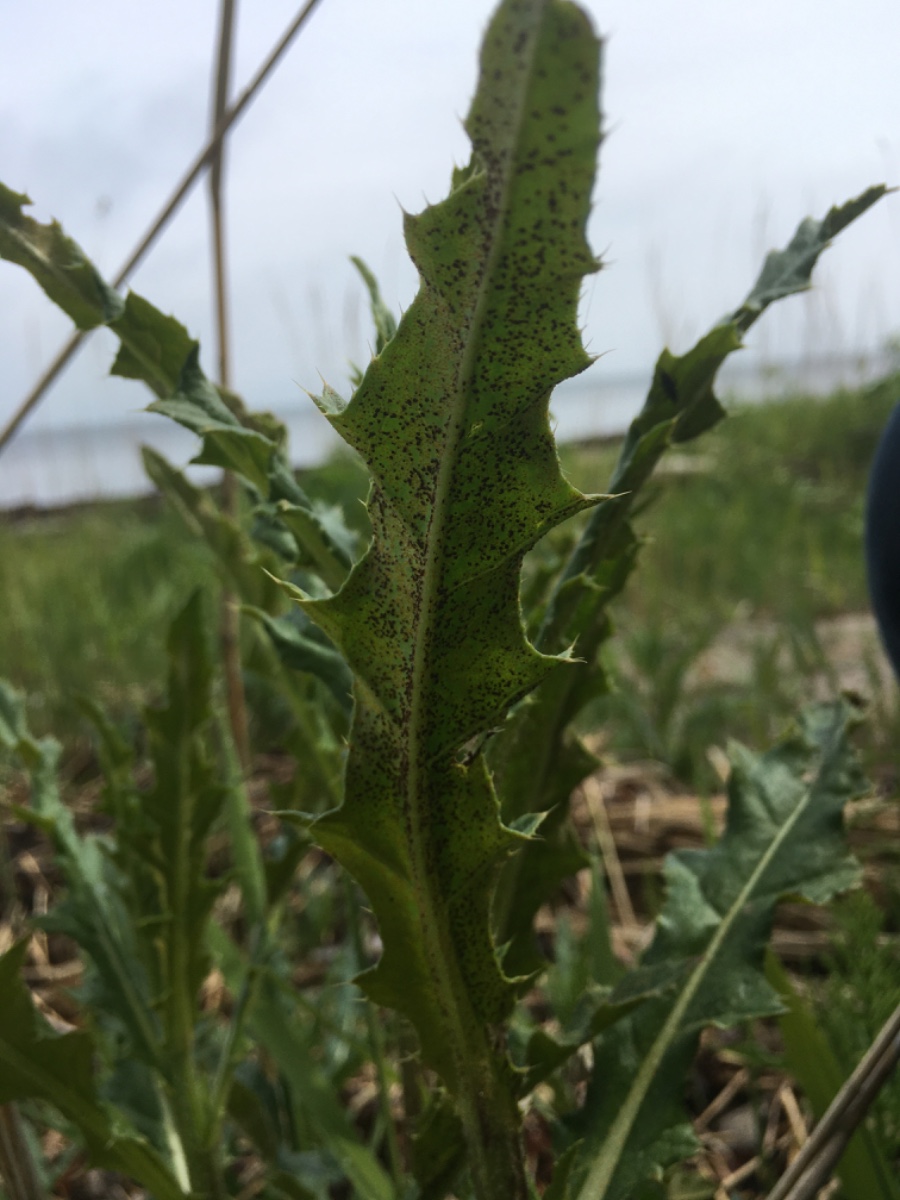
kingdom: Fungi
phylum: Basidiomycota
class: Pucciniomycetes
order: Pucciniales
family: Pucciniaceae
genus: Puccinia
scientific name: Puccinia suaveolens
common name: tidsel-tvecellerust
